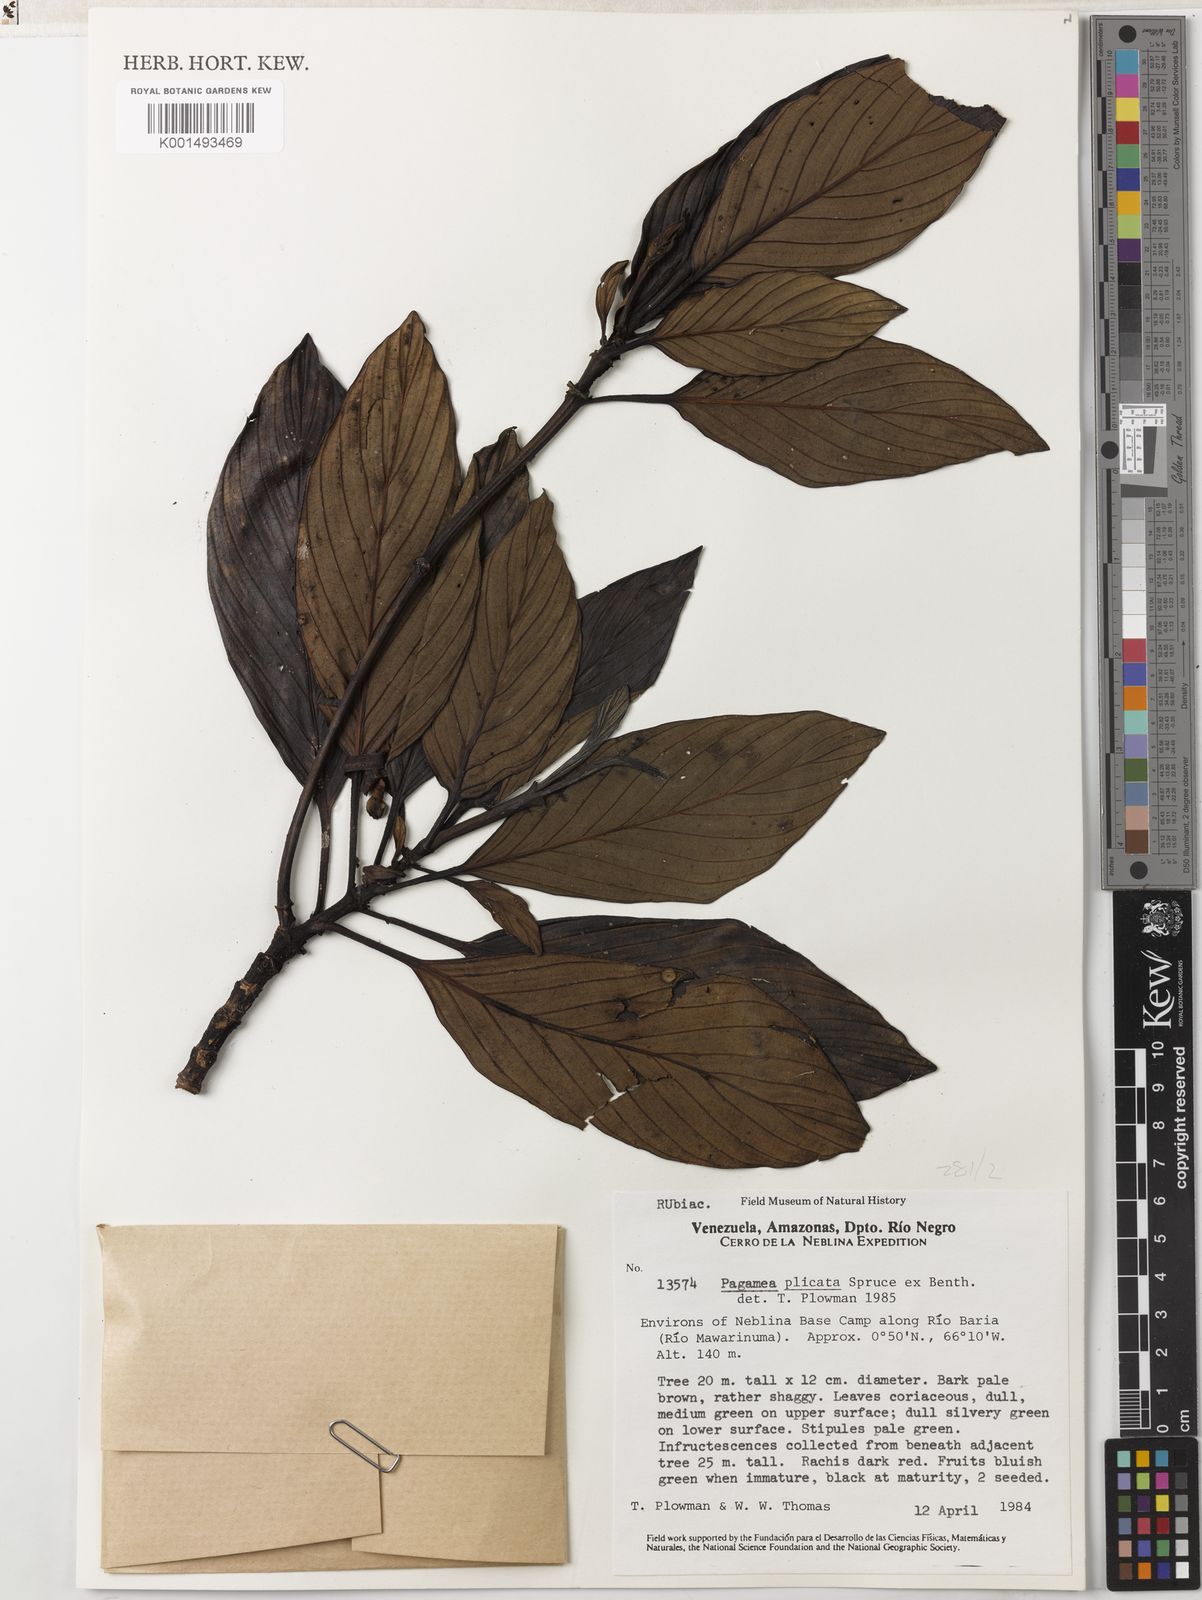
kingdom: Plantae
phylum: Tracheophyta
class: Magnoliopsida
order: Gentianales
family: Rubiaceae
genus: Pagamea
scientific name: Pagamea plicata
